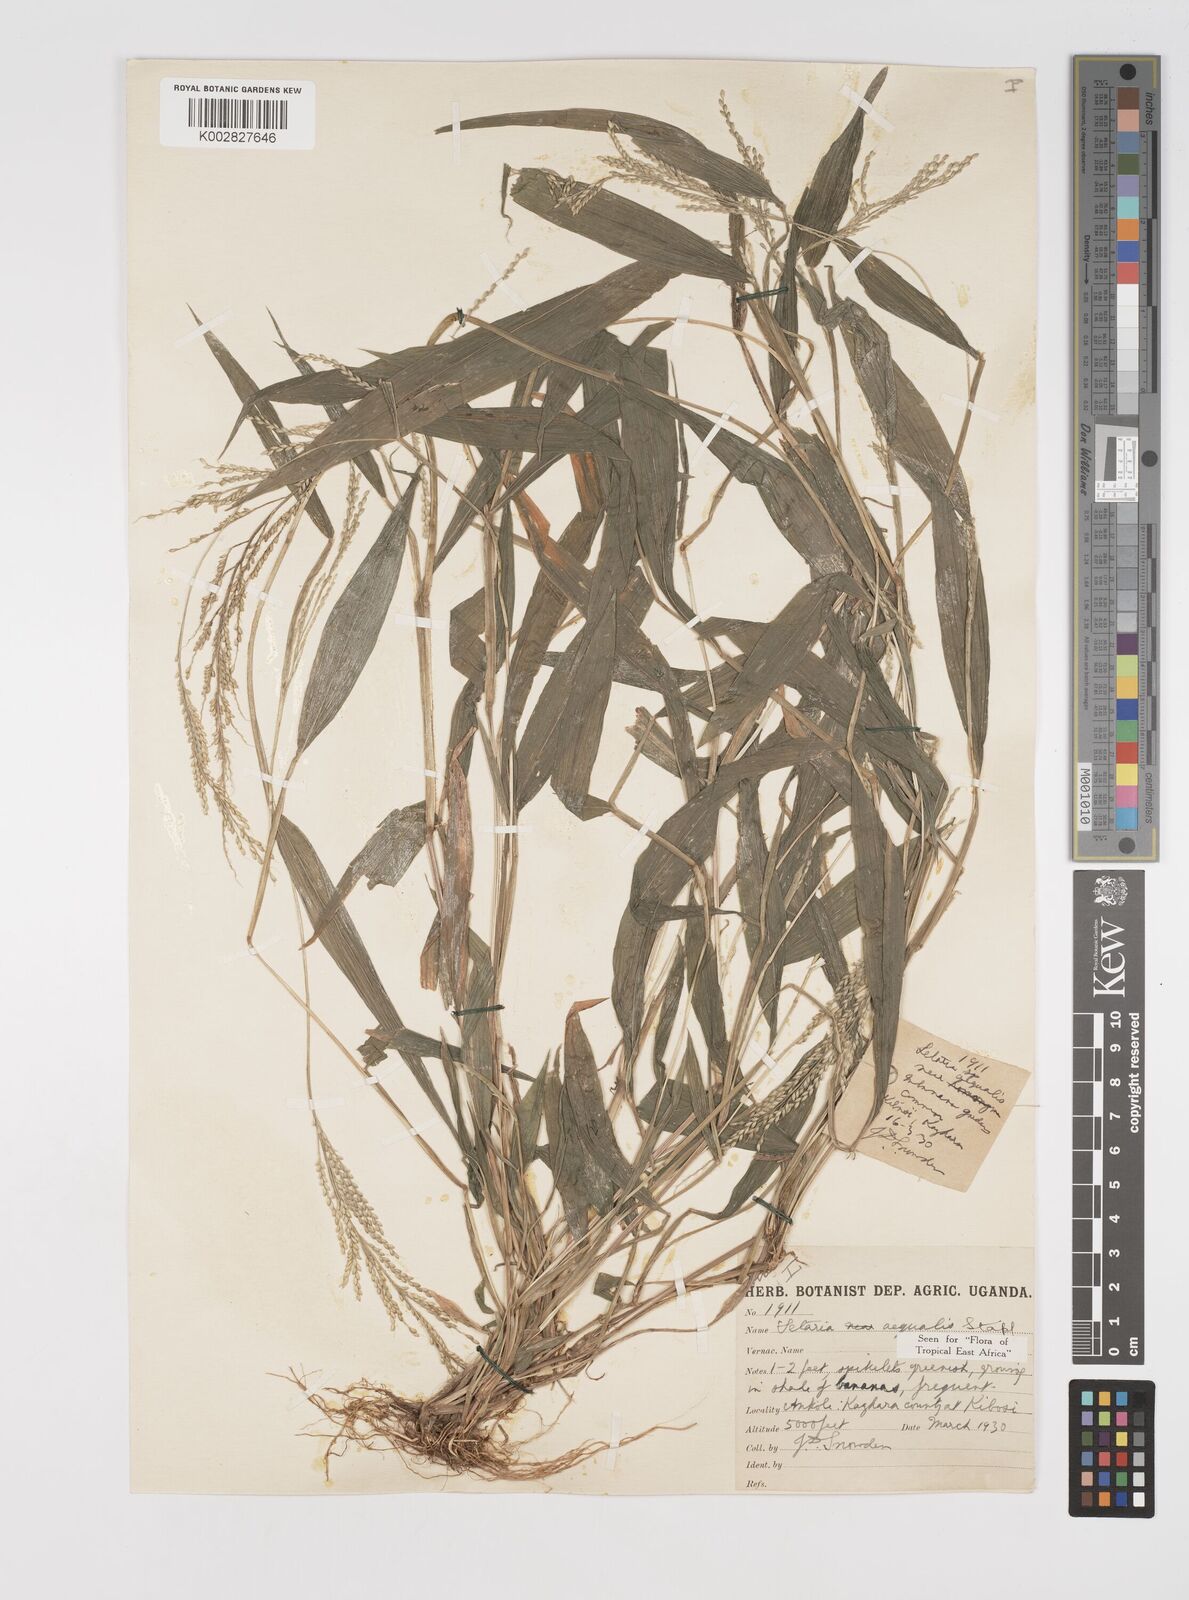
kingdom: Plantae
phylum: Tracheophyta
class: Liliopsida
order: Poales
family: Poaceae
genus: Setaria
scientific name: Setaria homonyma
